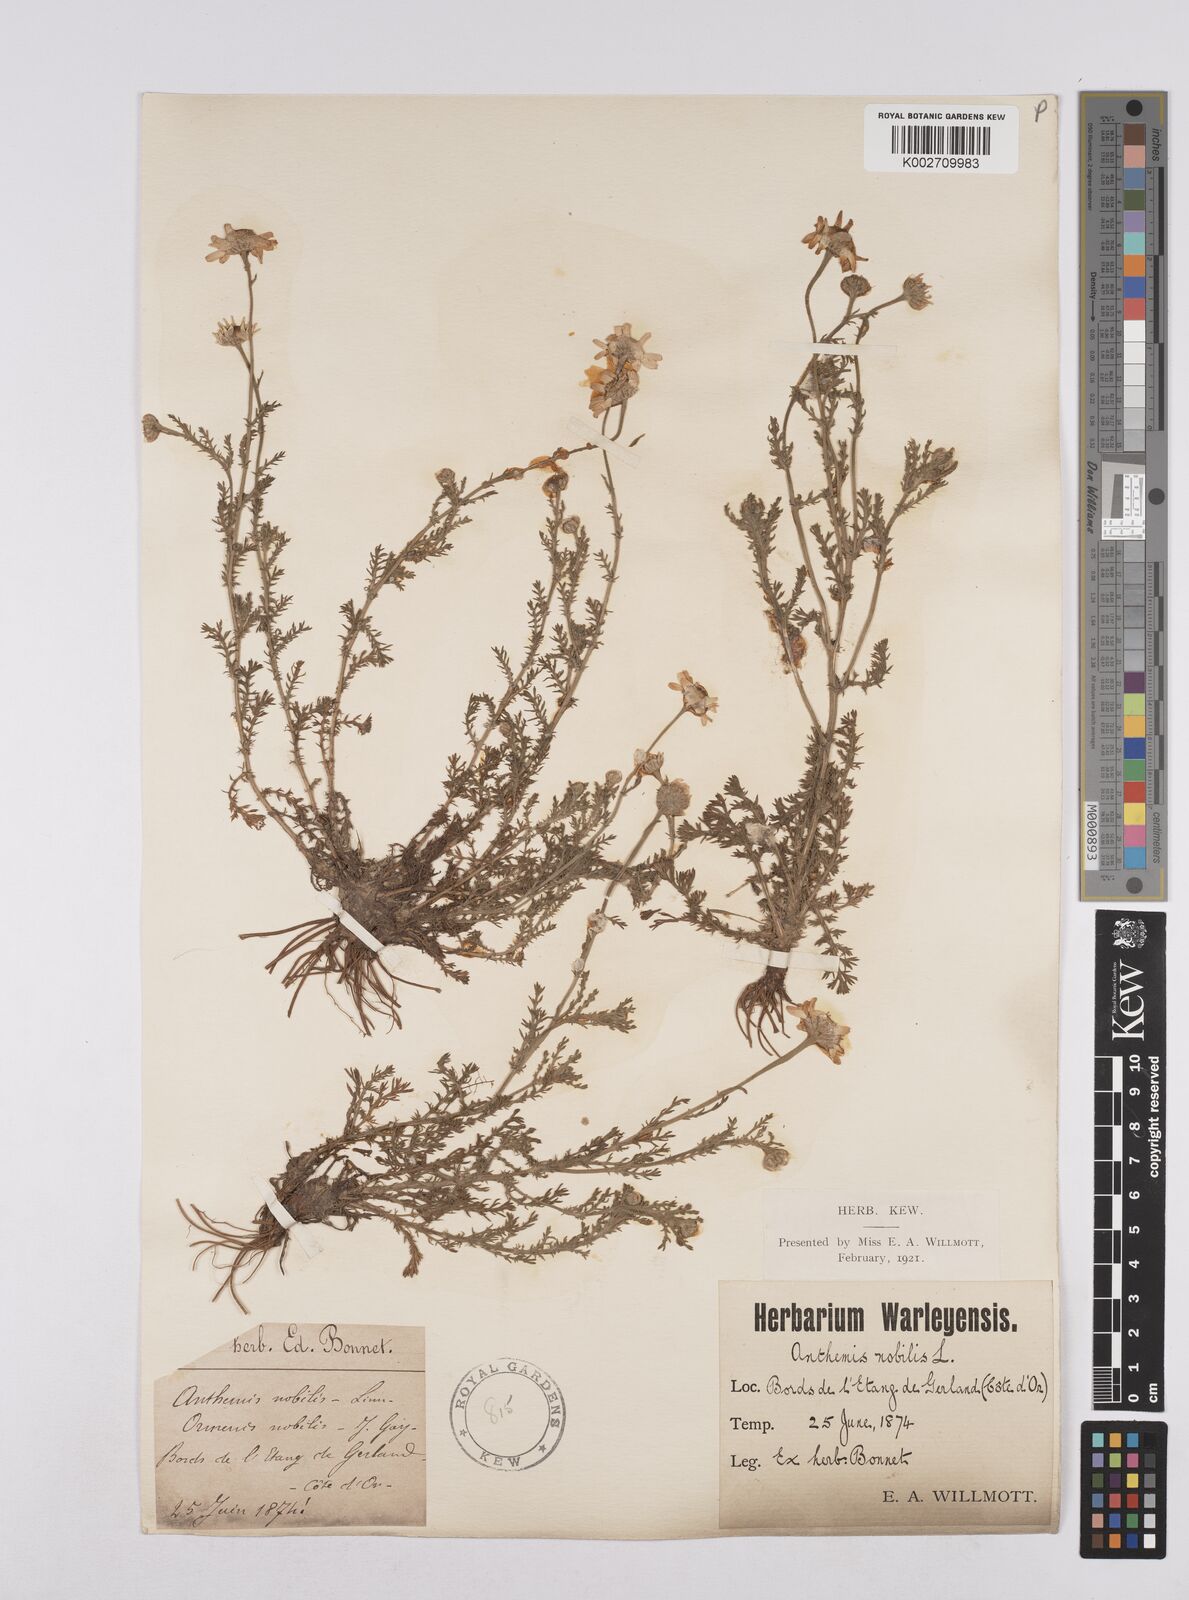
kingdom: Plantae
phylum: Tracheophyta
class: Magnoliopsida
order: Asterales
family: Asteraceae
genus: Chamaemelum
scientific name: Chamaemelum nobile
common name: Roman chamomile
